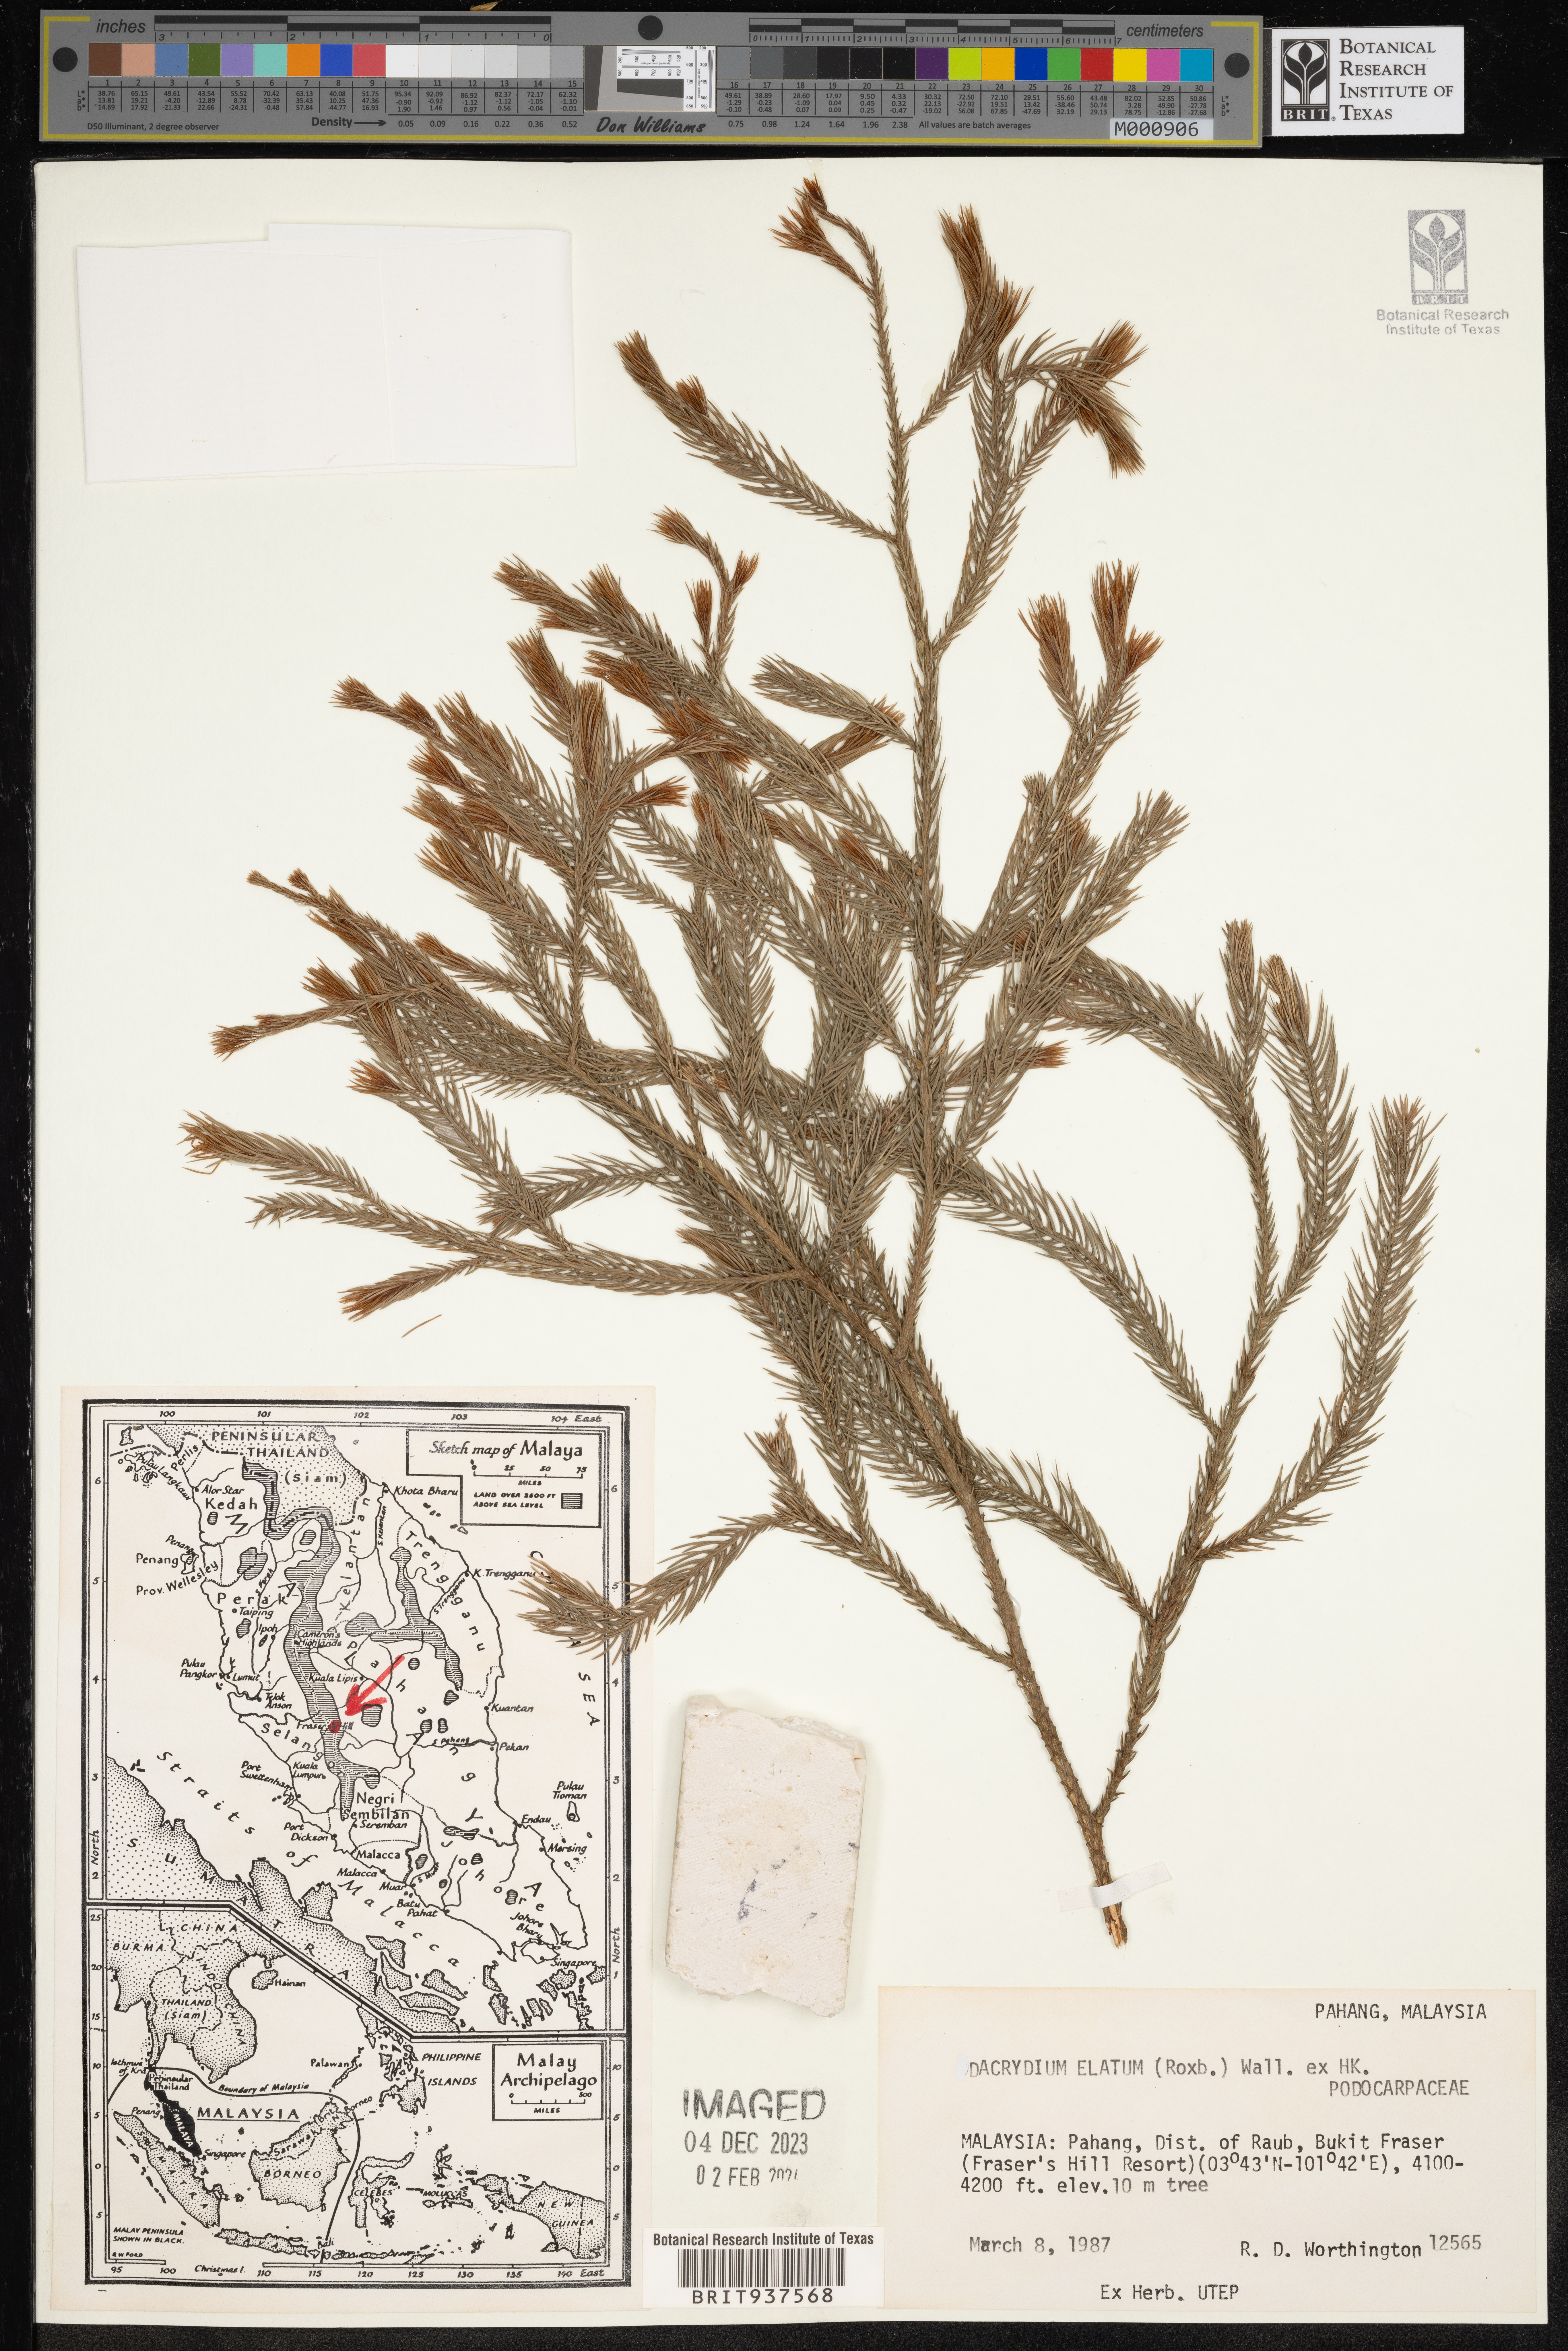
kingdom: Plantae
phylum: Tracheophyta
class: Pinopsida
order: Pinales
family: Podocarpaceae
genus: Dacrydium
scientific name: Dacrydium
